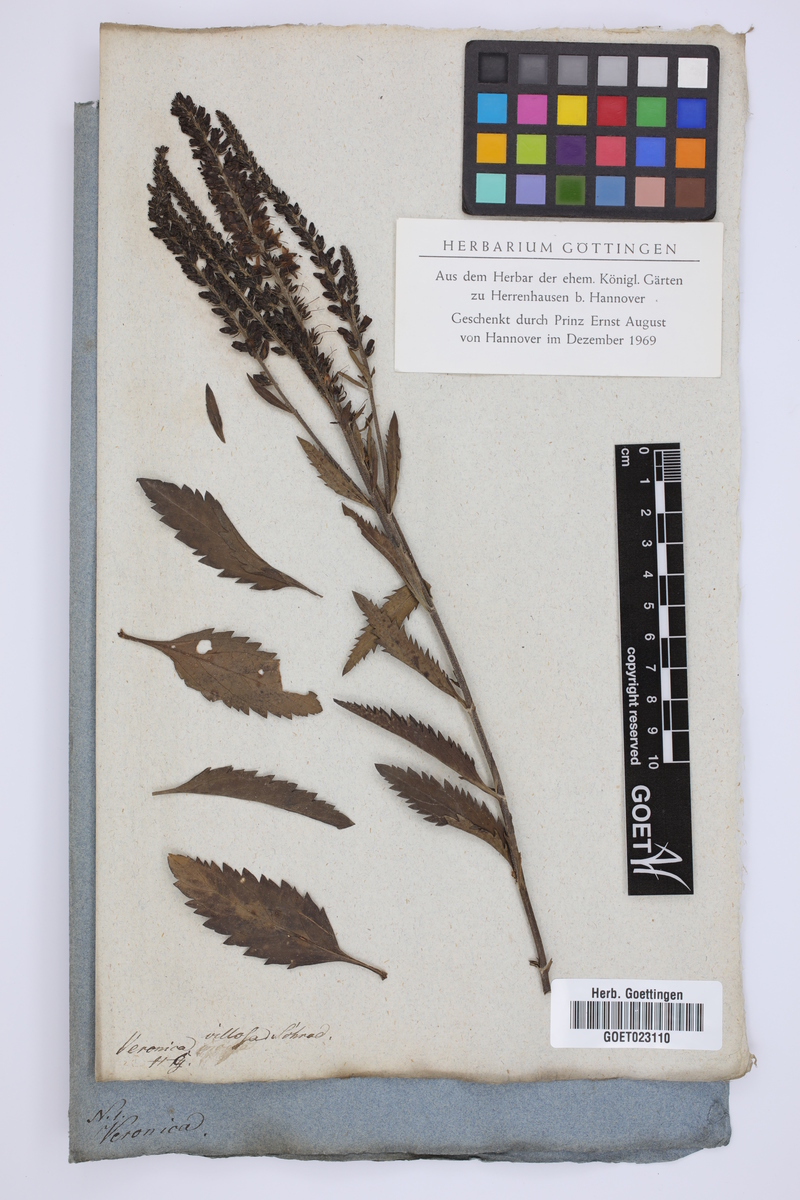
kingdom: Plantae
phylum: Tracheophyta
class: Magnoliopsida
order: Lamiales
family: Plantaginaceae
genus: Veronica
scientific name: Veronica maritima
